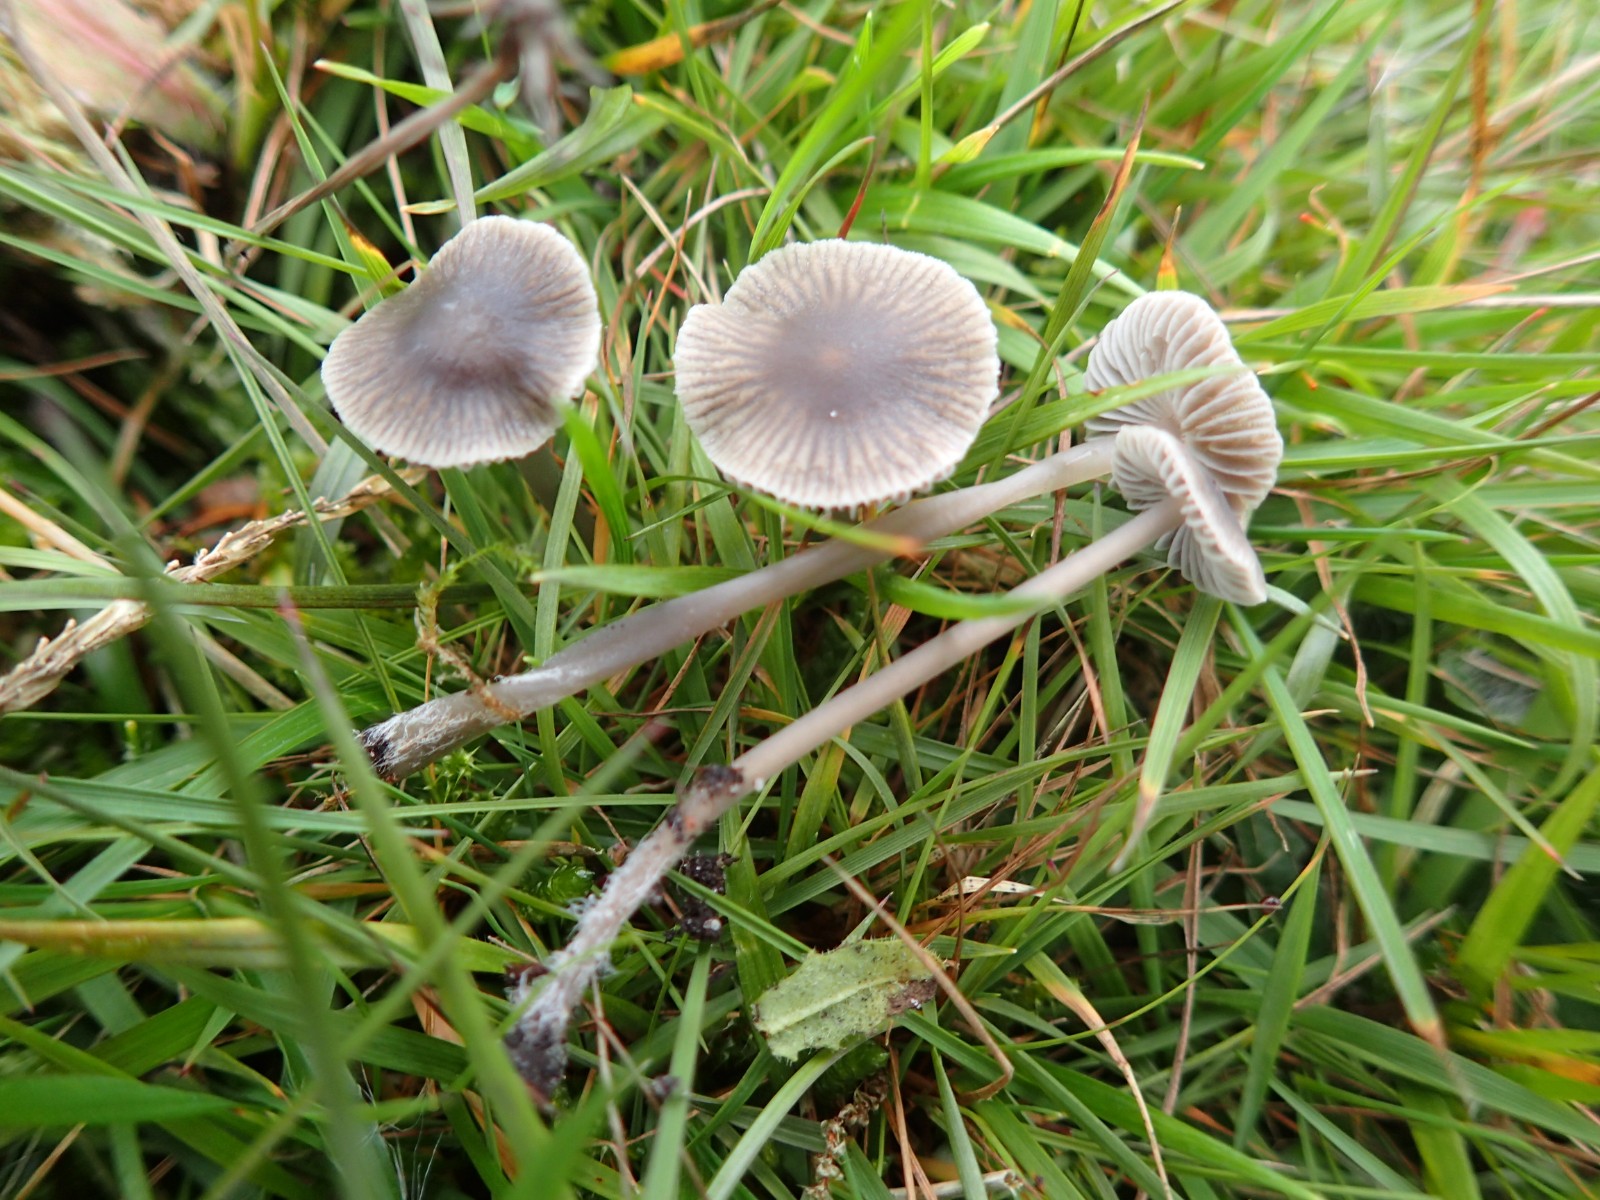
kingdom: Fungi
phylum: Basidiomycota
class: Agaricomycetes
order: Agaricales
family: Mycenaceae
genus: Mycena
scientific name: Mycena aetites
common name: plæne-huesvamp
